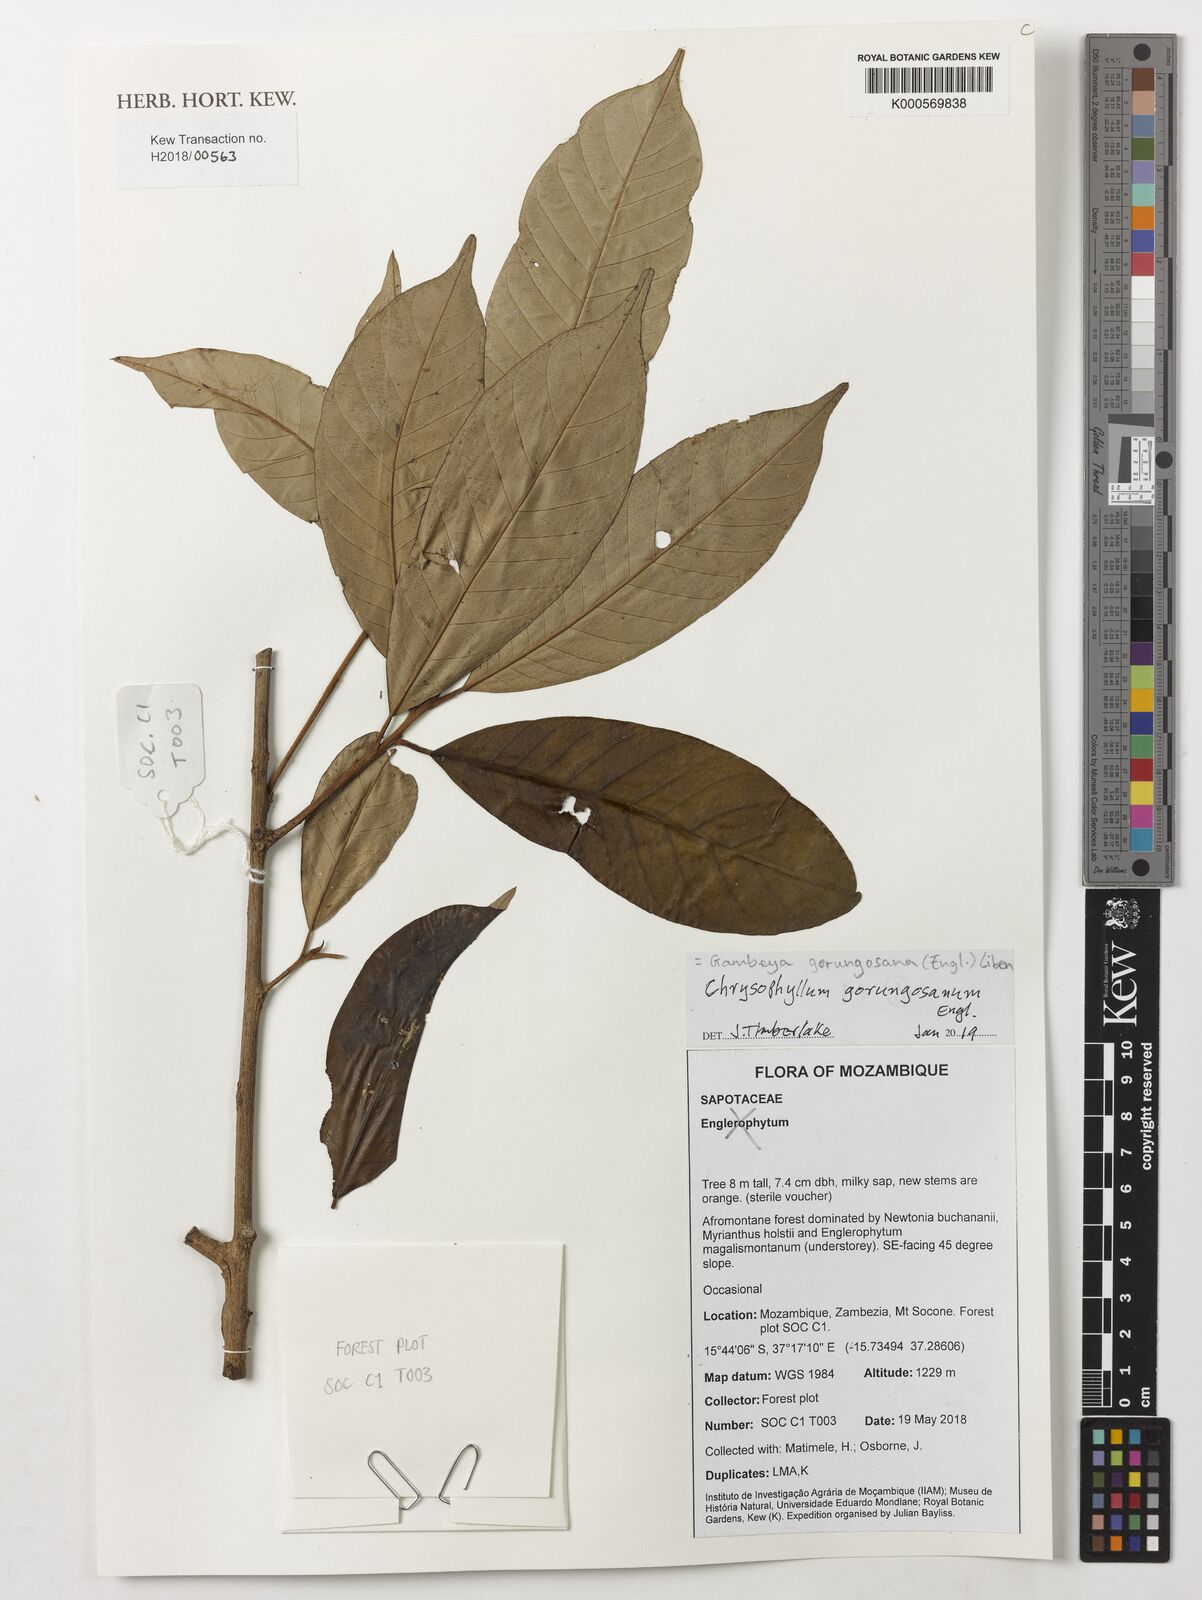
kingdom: Plantae
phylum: Tracheophyta
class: Magnoliopsida
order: Ericales
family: Sapotaceae
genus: Gambeya
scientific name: Gambeya gorungosana
